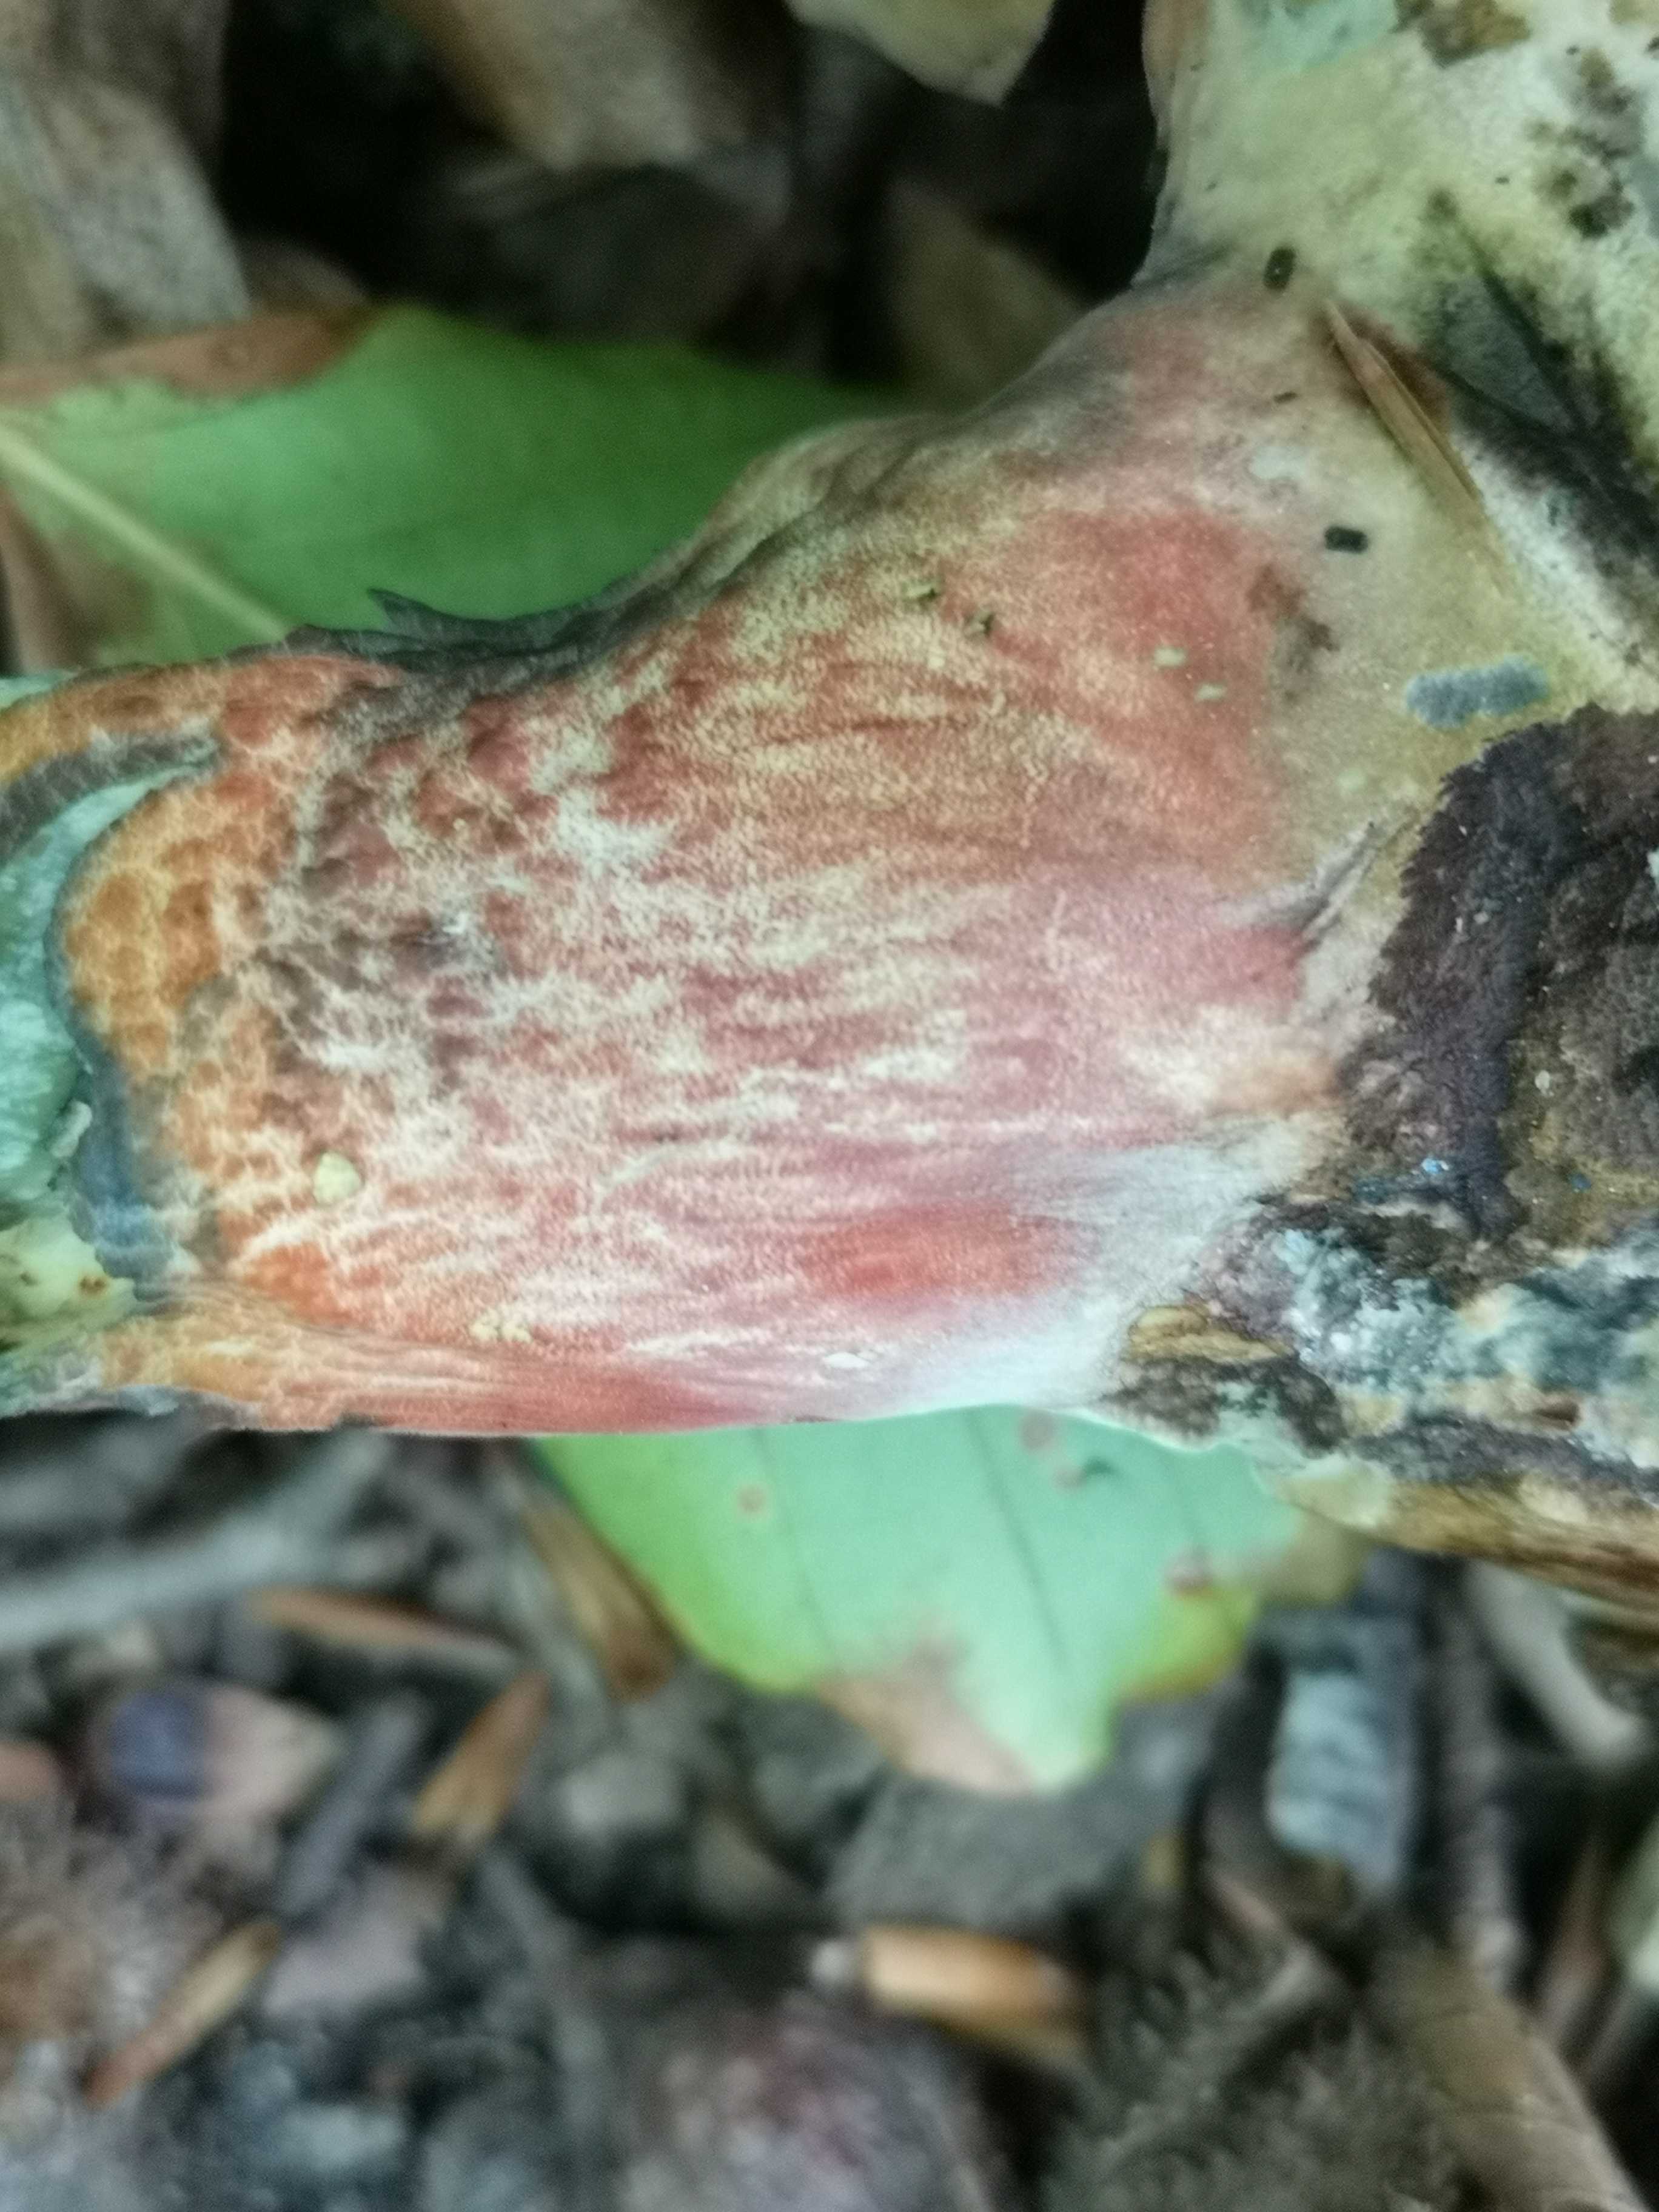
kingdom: Fungi
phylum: Basidiomycota
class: Agaricomycetes
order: Boletales
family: Boletaceae
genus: Neoboletus
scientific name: Neoboletus erythropus
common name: punktstokket indigorørhat
